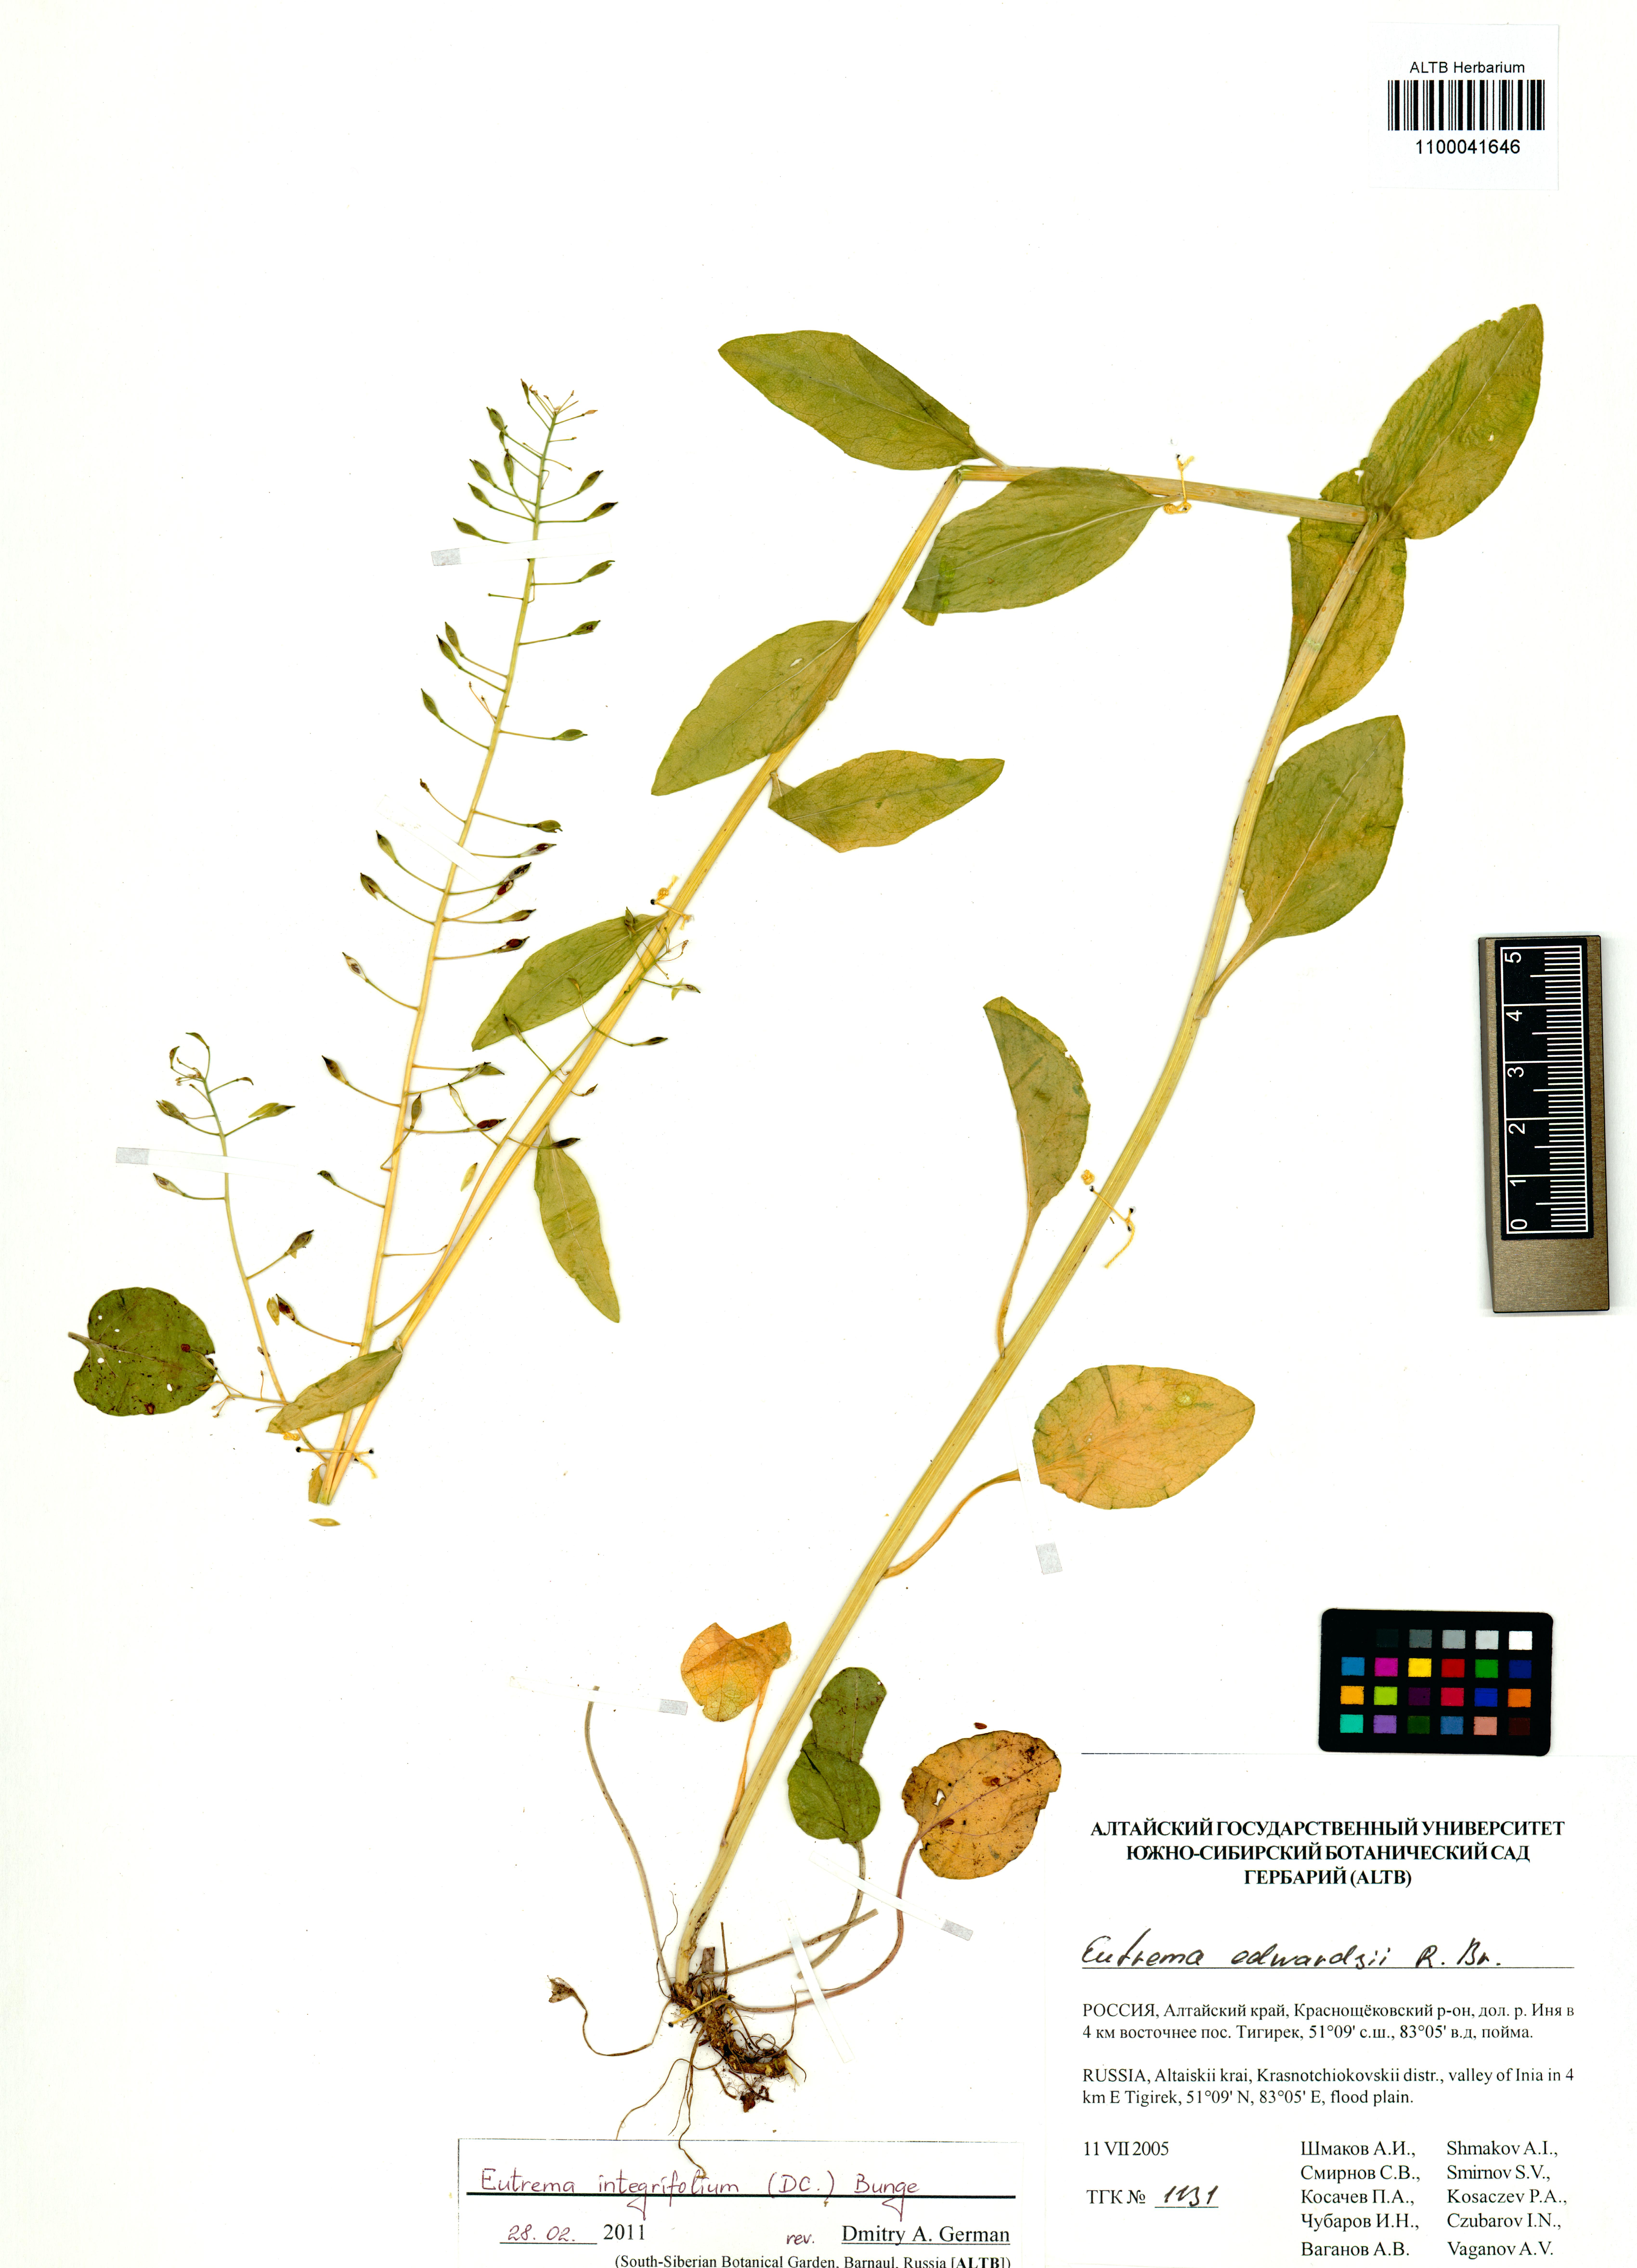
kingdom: Plantae
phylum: Tracheophyta
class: Magnoliopsida
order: Brassicales
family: Brassicaceae
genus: Eutrema
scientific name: Eutrema integrifolium
